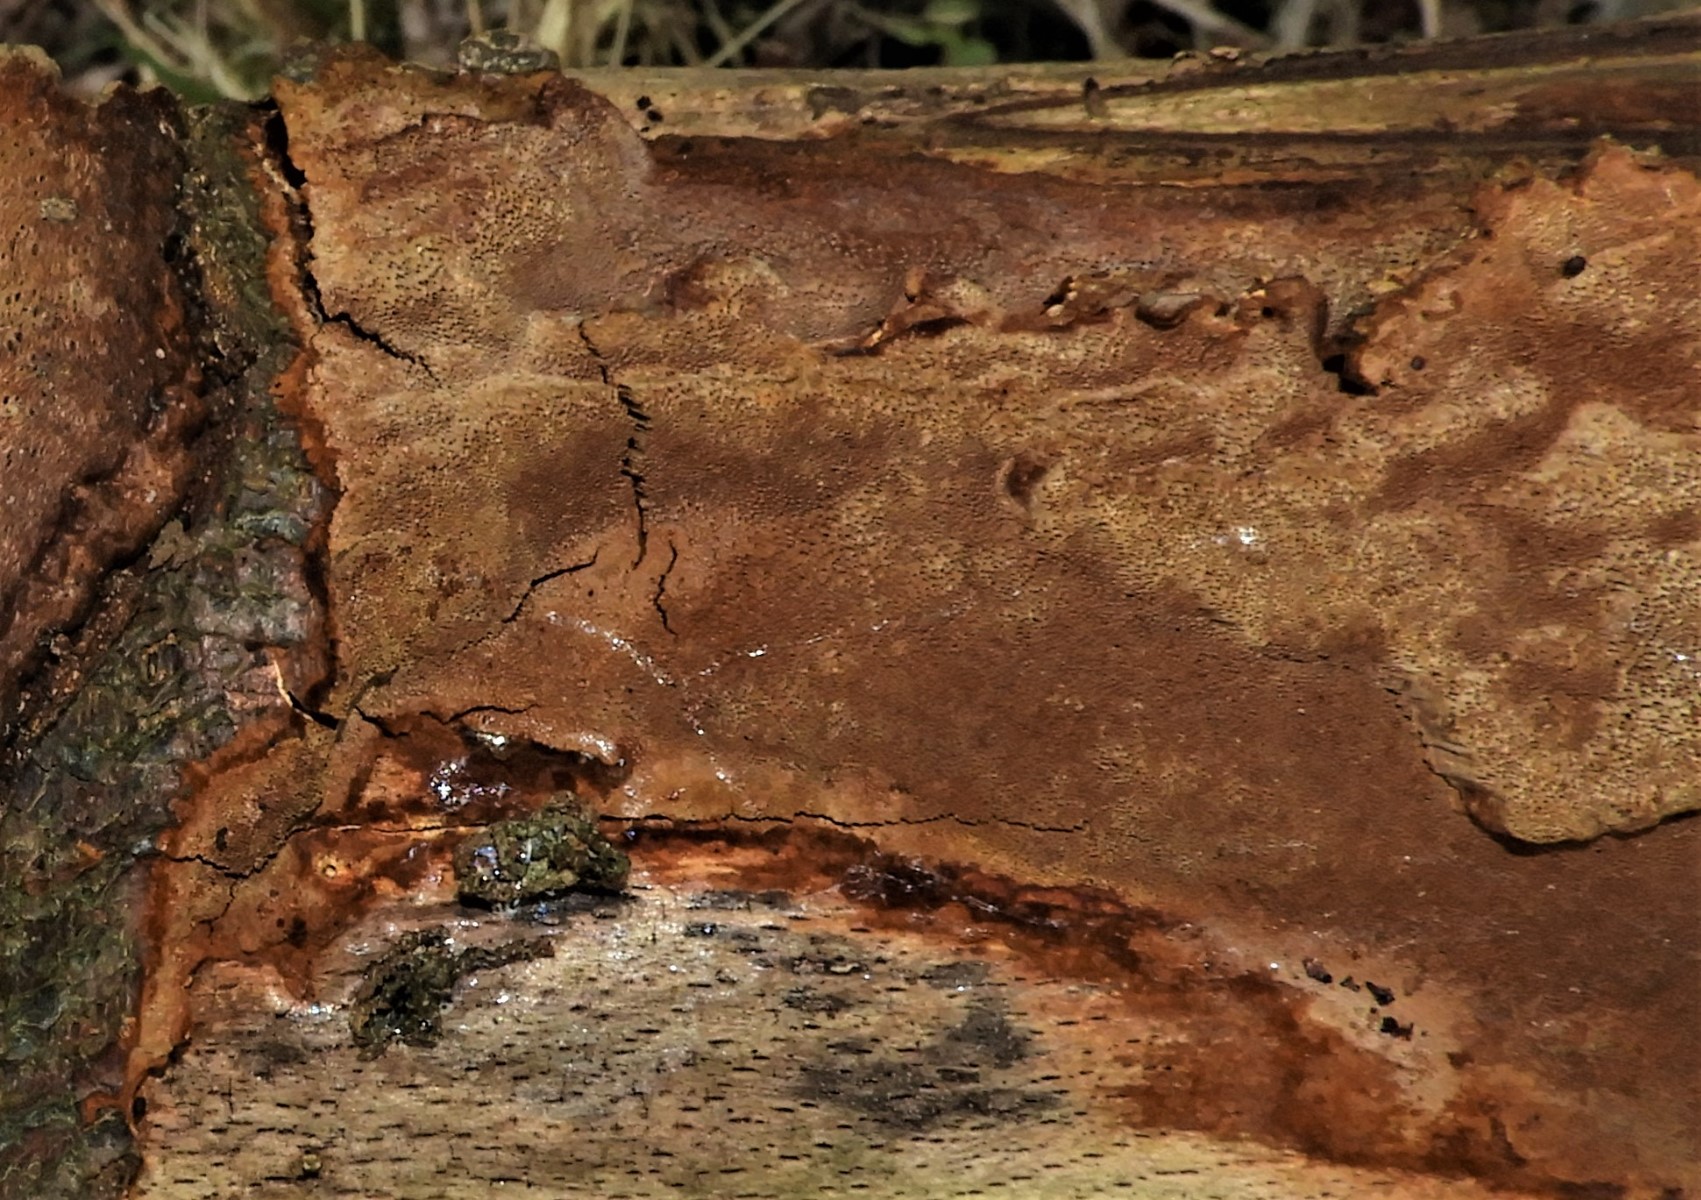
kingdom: Fungi
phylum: Basidiomycota
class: Agaricomycetes
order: Hymenochaetales
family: Hymenochaetaceae
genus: Fuscoporia
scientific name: Fuscoporia ferrea
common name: skorpe-ildporesvamp
